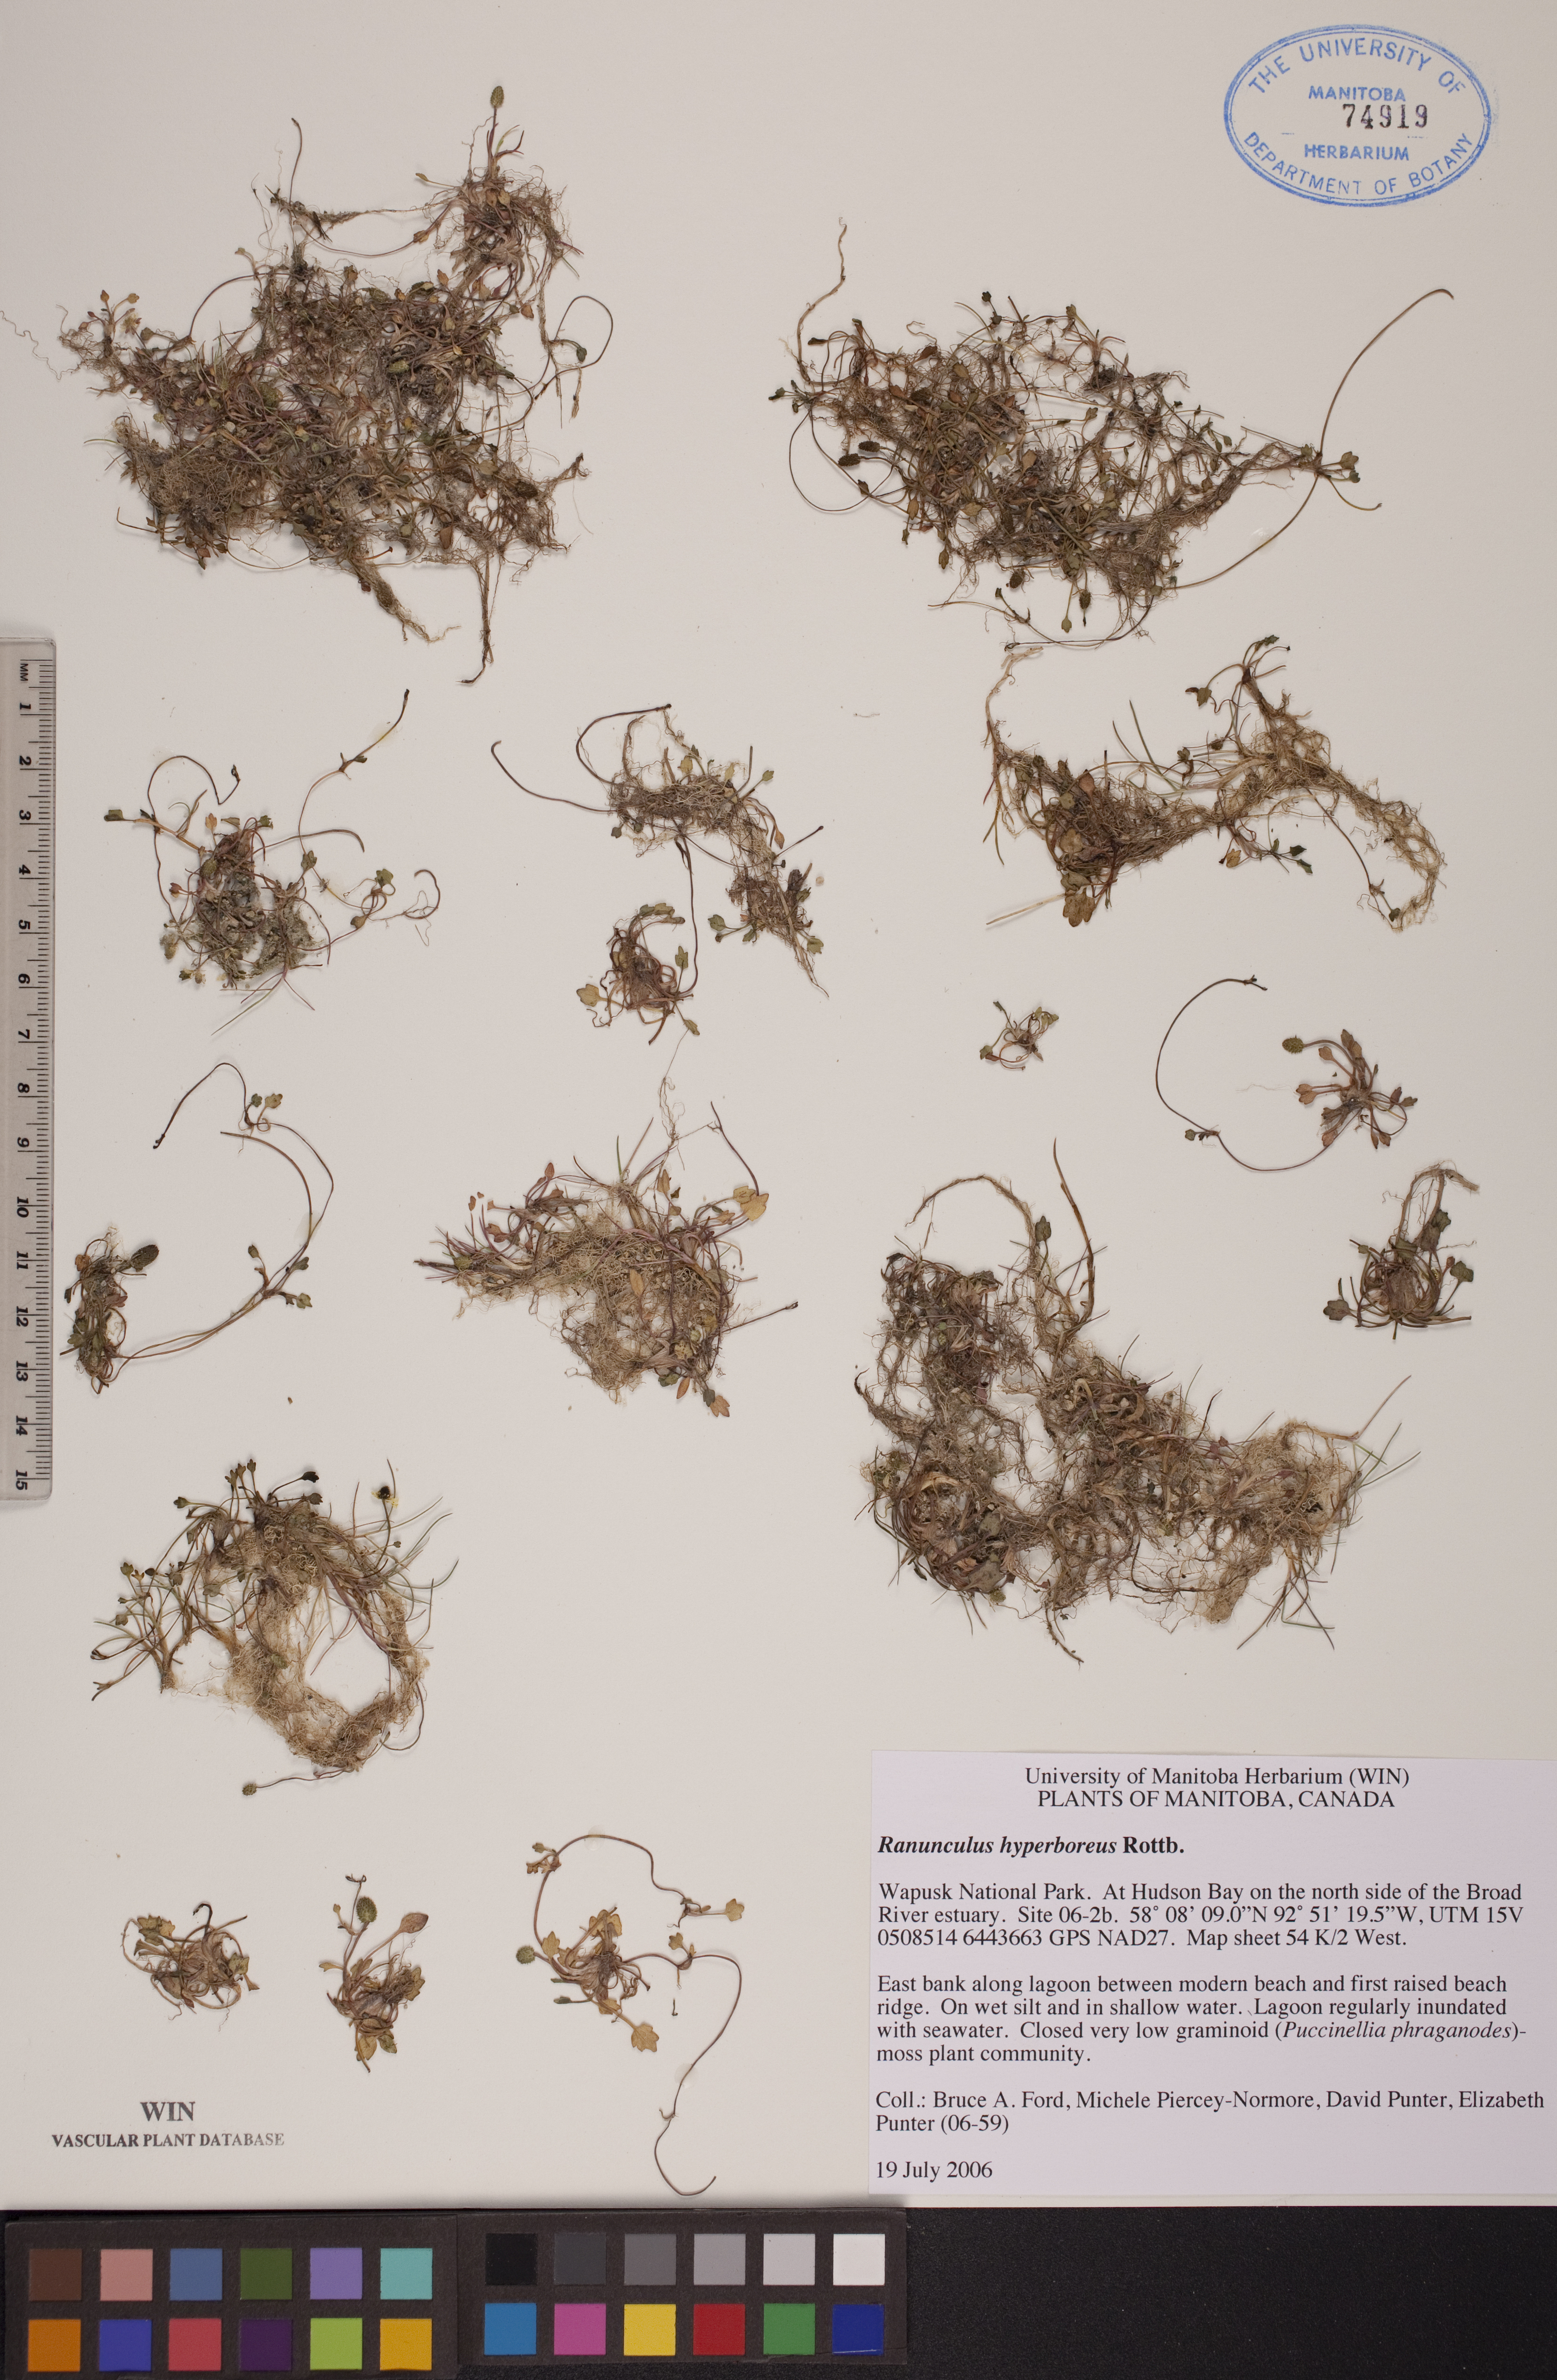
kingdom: Plantae
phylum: Tracheophyta
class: Magnoliopsida
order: Ranunculales
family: Ranunculaceae
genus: Ranunculus
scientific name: Ranunculus hyperboreus
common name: Arctic buttercup
